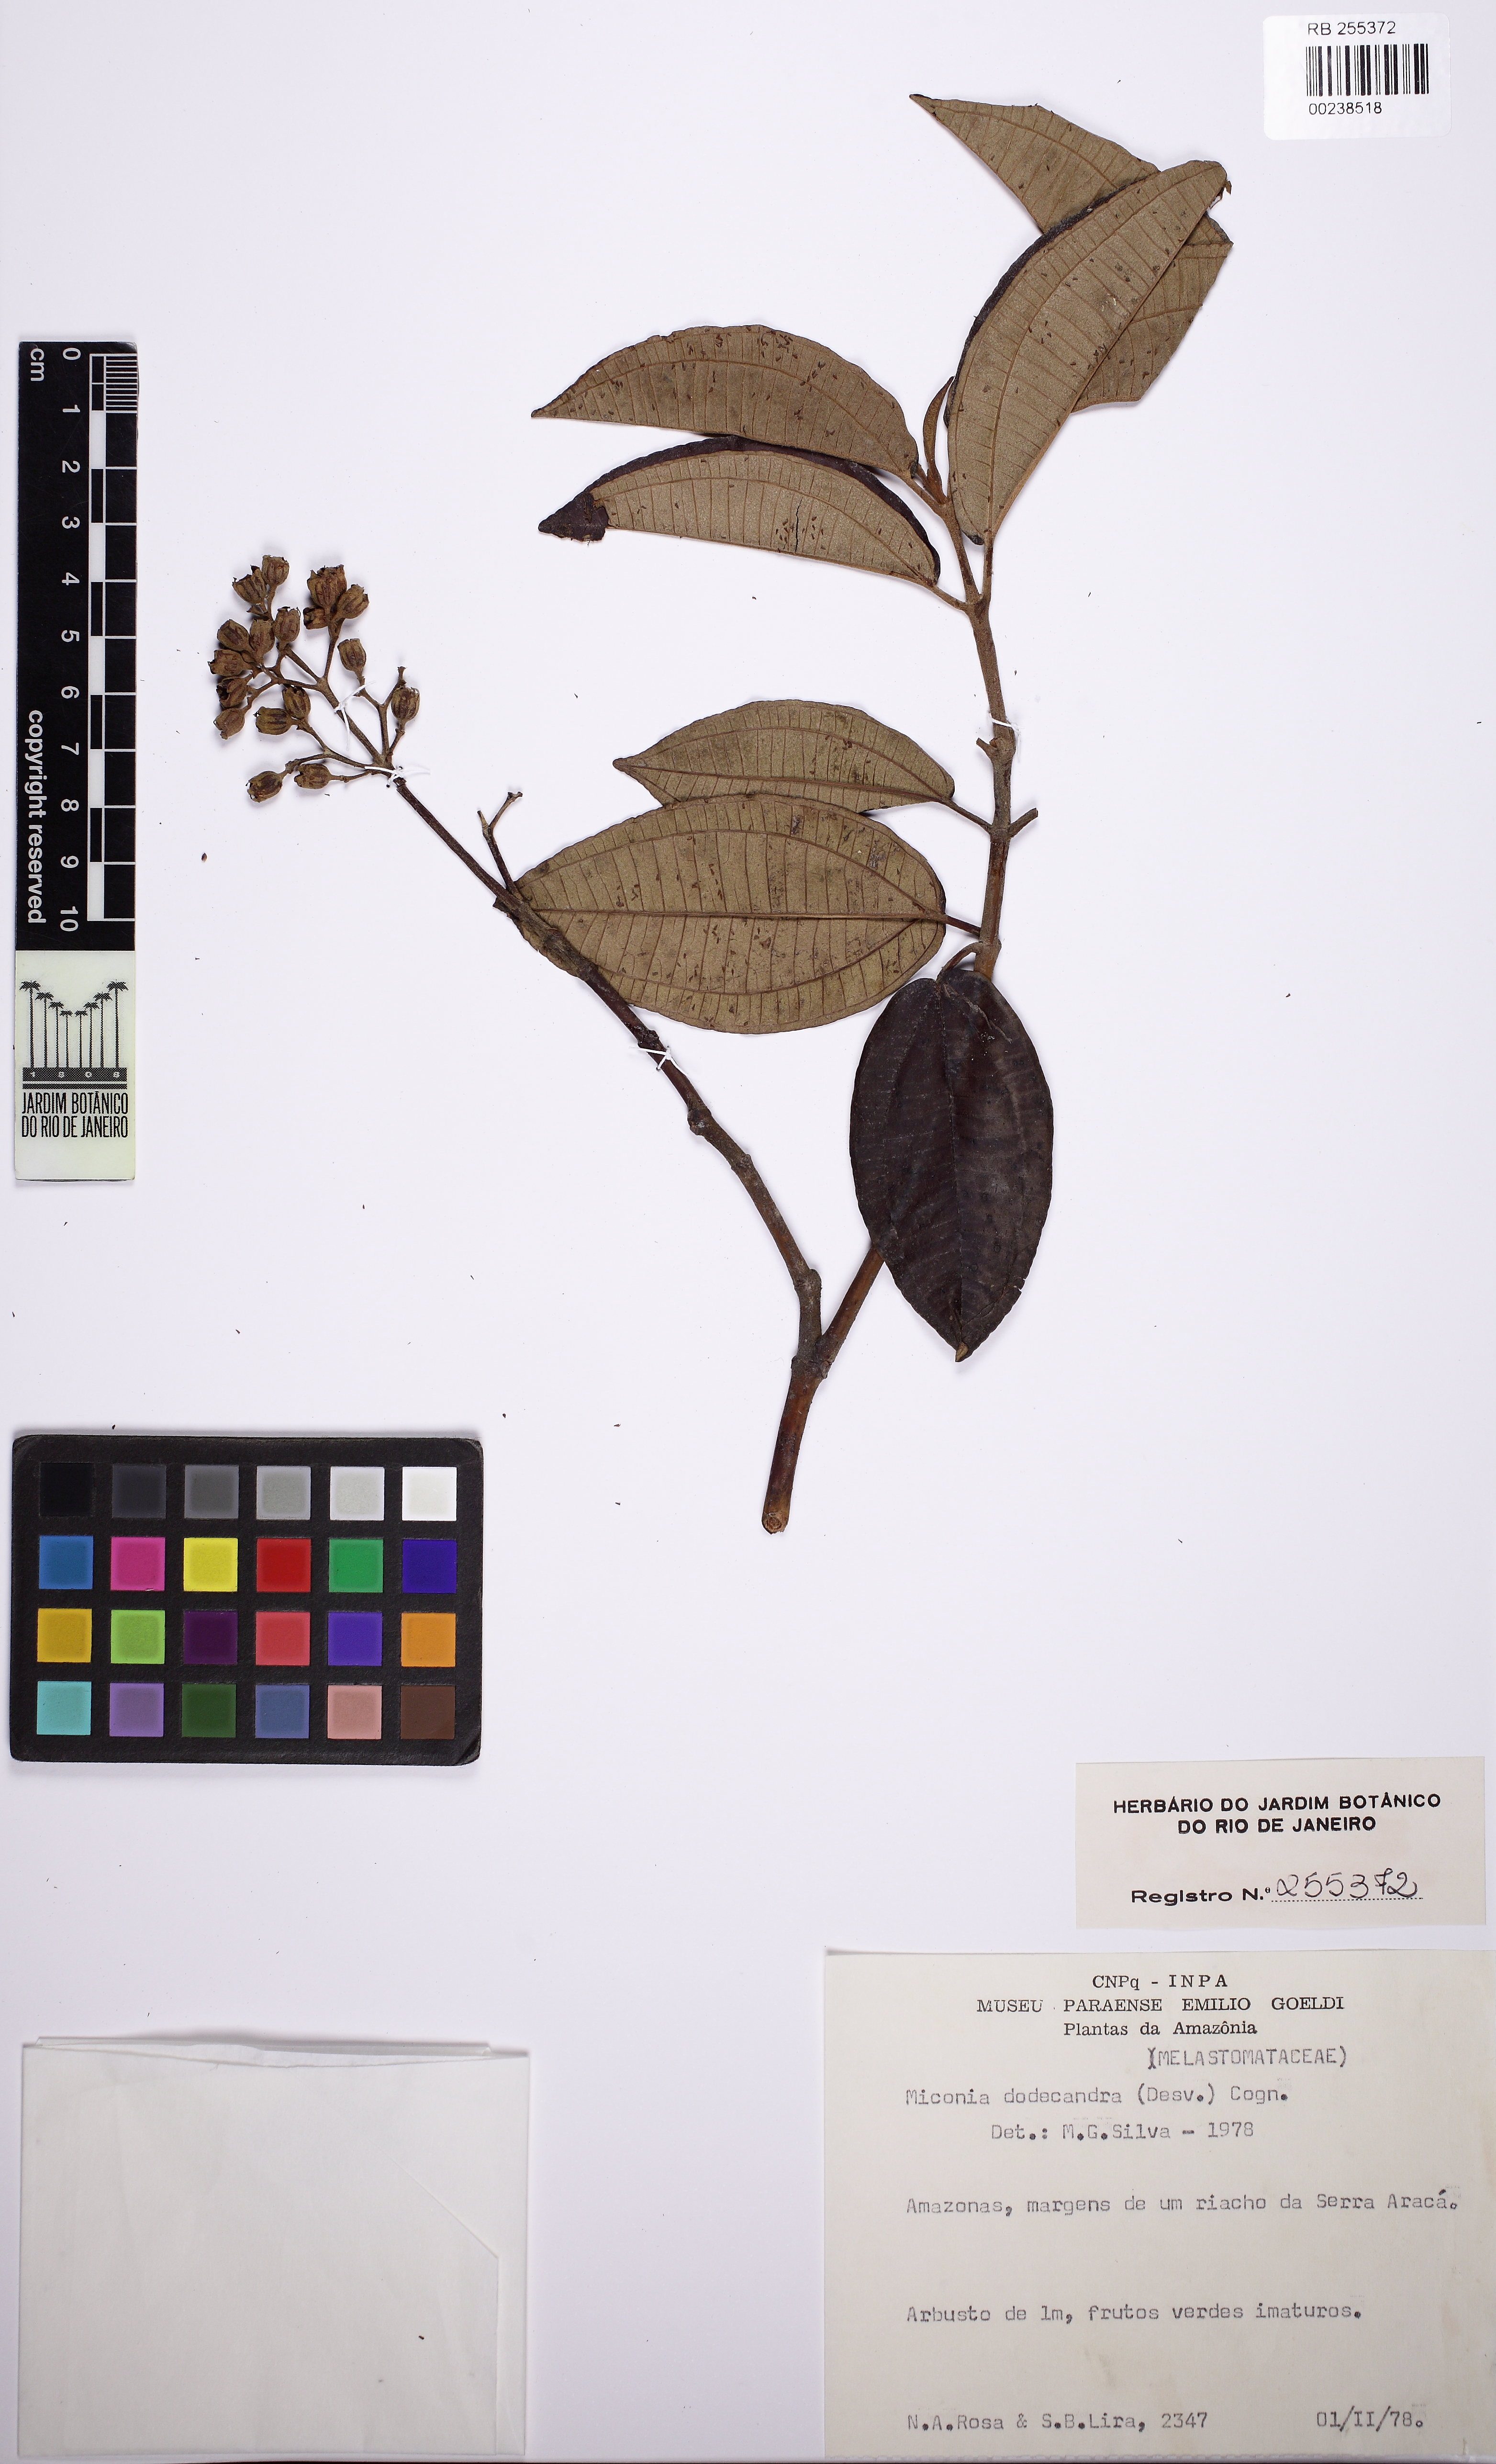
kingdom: Plantae
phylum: Tracheophyta
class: Magnoliopsida
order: Myrtales
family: Melastomataceae
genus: Graffenrieda
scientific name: Graffenrieda weddellii
